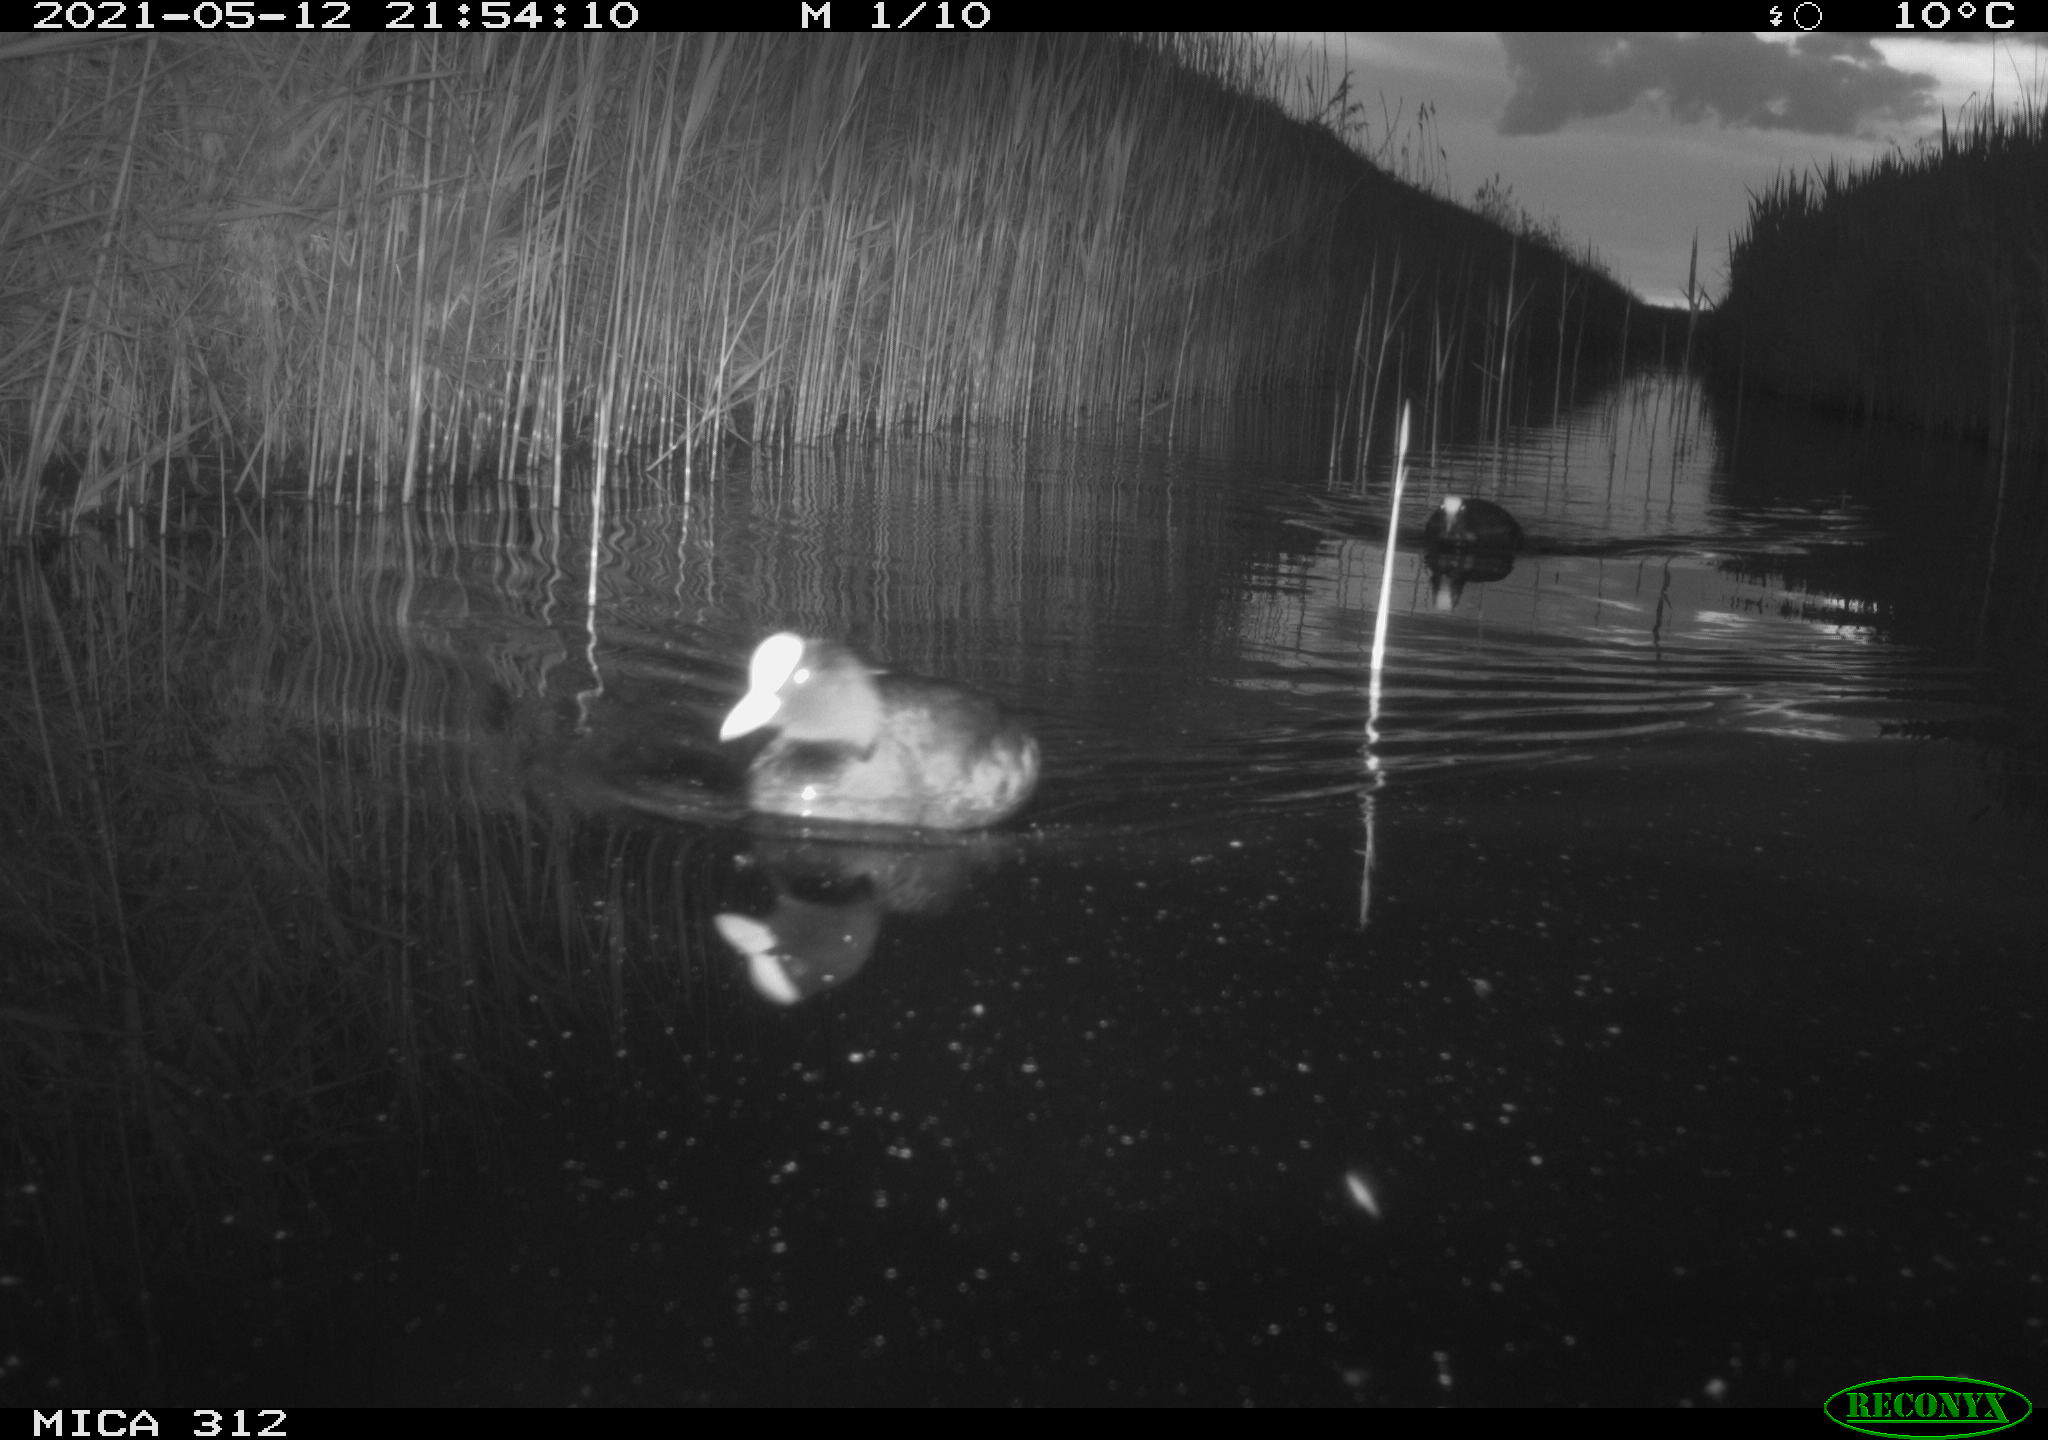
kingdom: Animalia
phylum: Chordata
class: Aves
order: Gruiformes
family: Rallidae
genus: Fulica
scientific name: Fulica atra
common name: Eurasian coot
